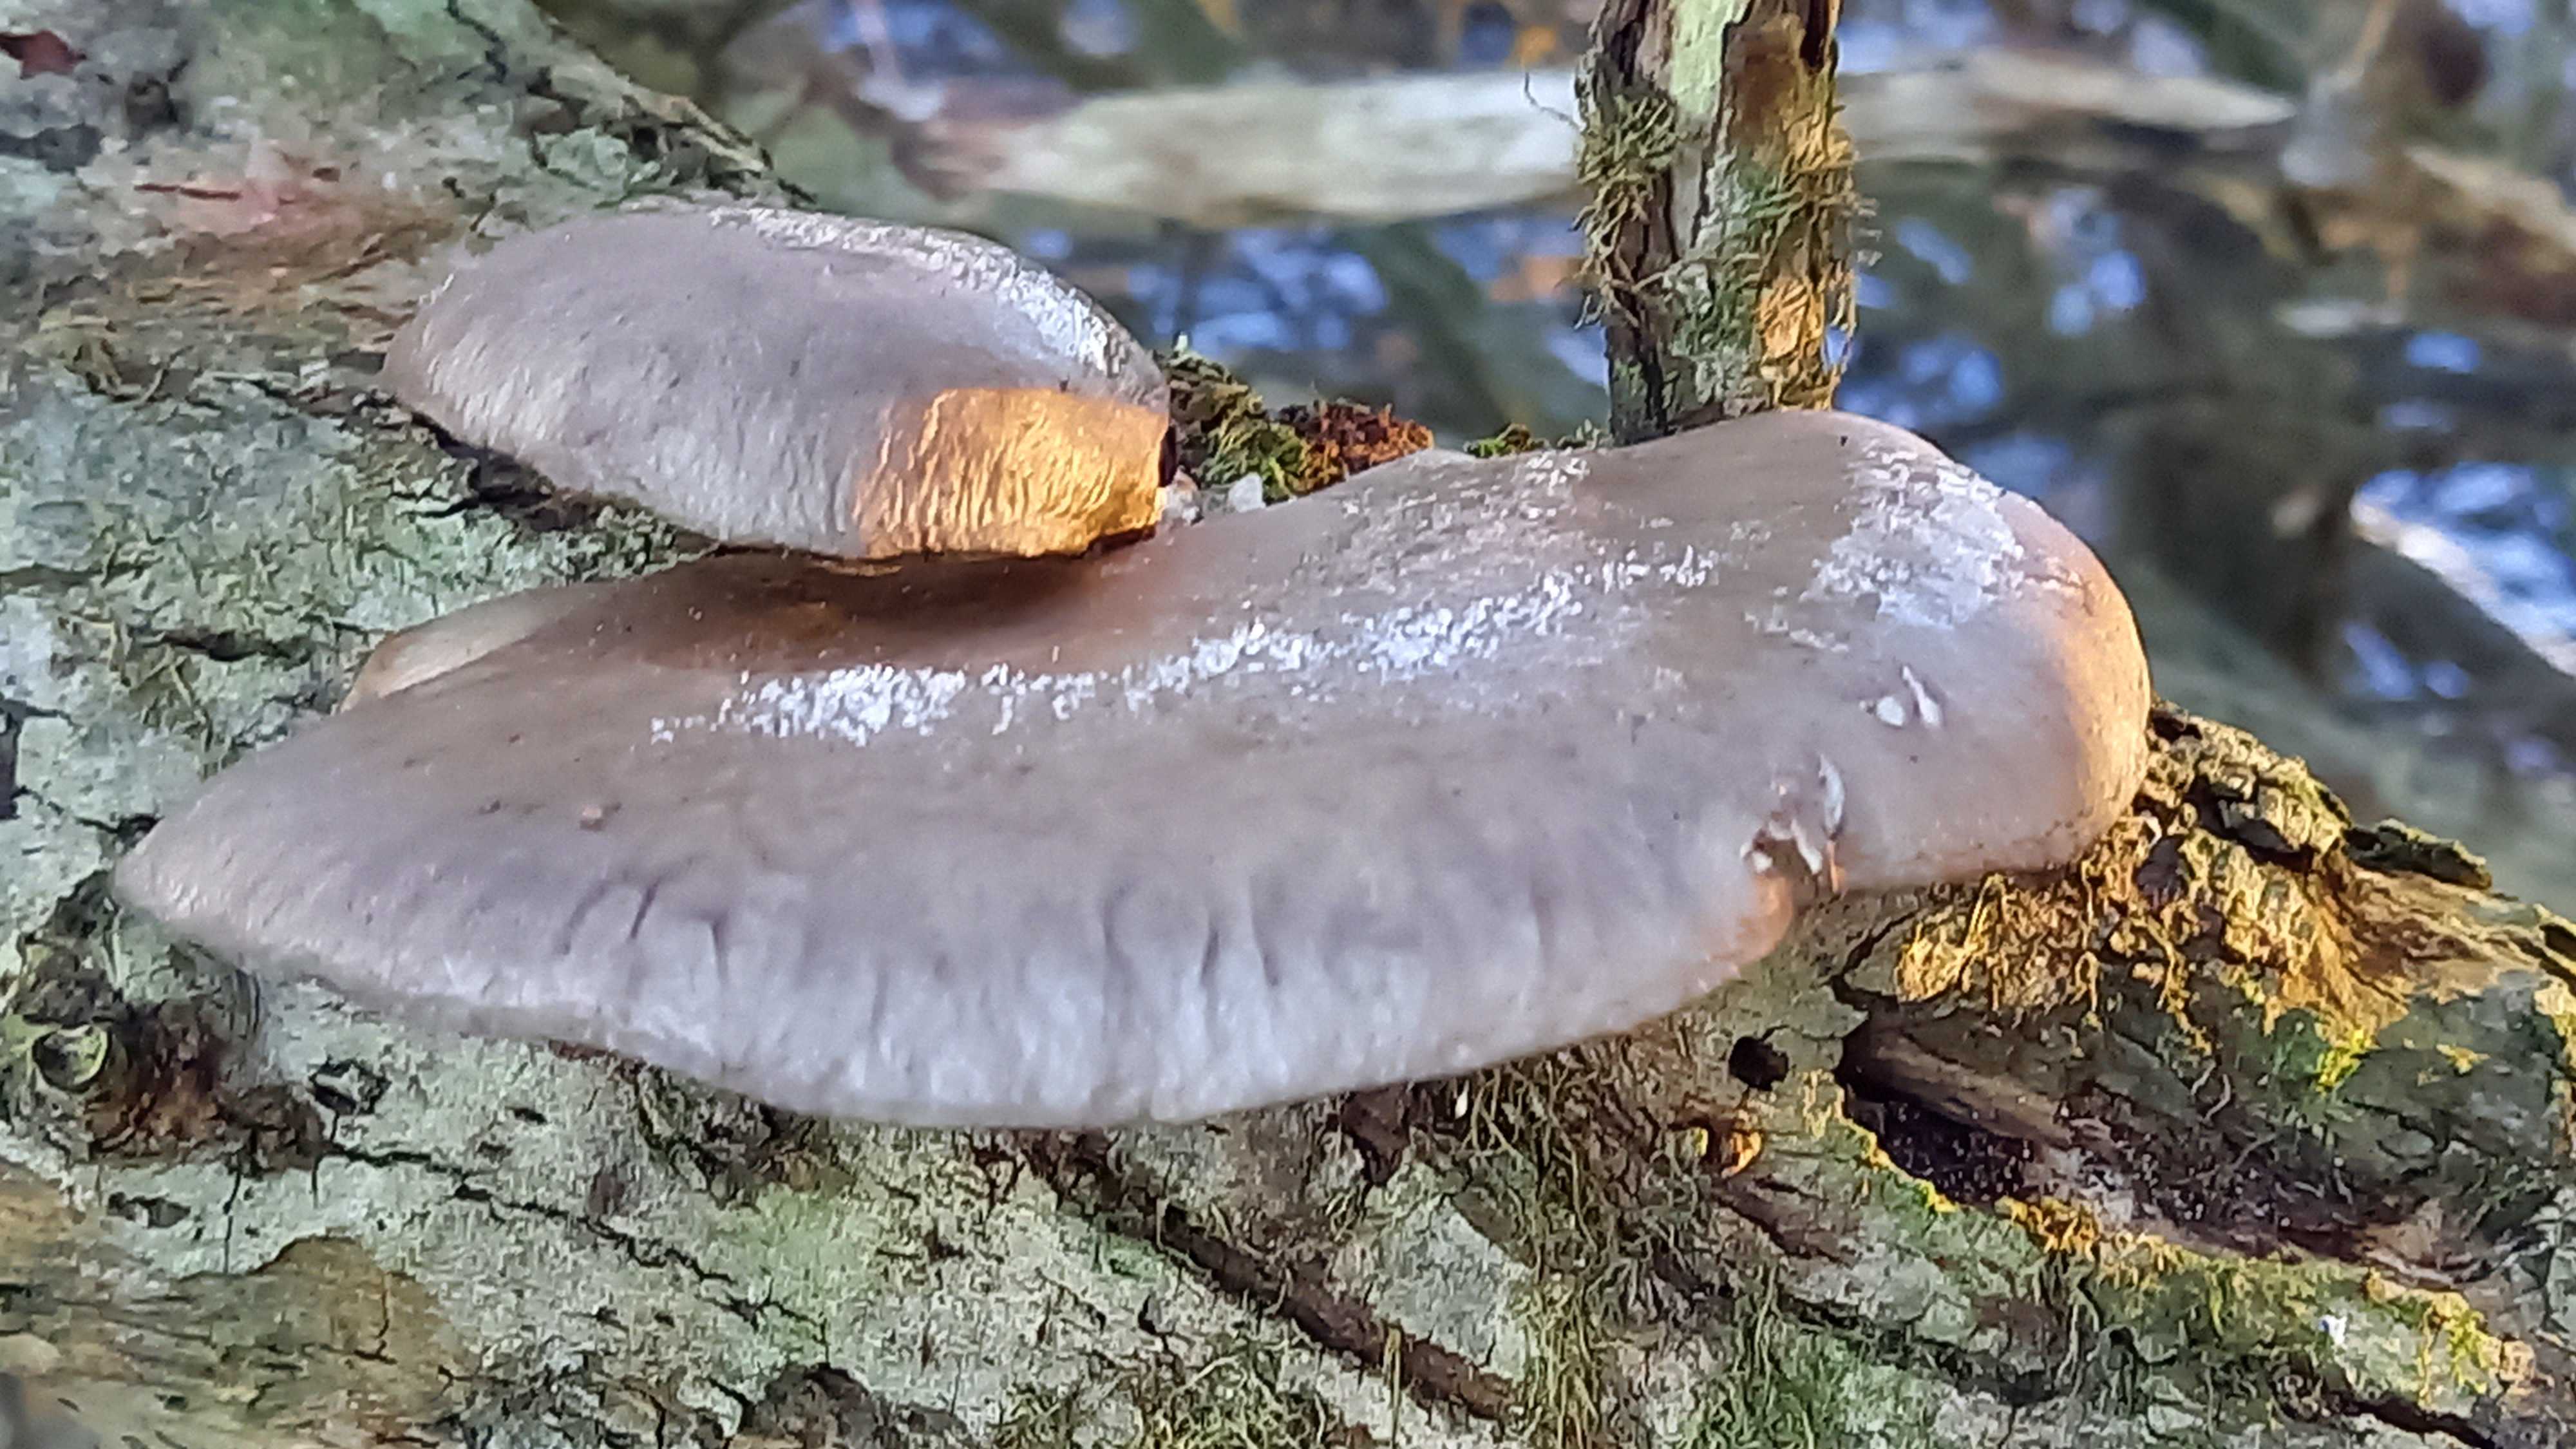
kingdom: Fungi
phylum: Basidiomycota
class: Agaricomycetes
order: Agaricales
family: Pleurotaceae
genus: Pleurotus
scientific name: Pleurotus ostreatus
